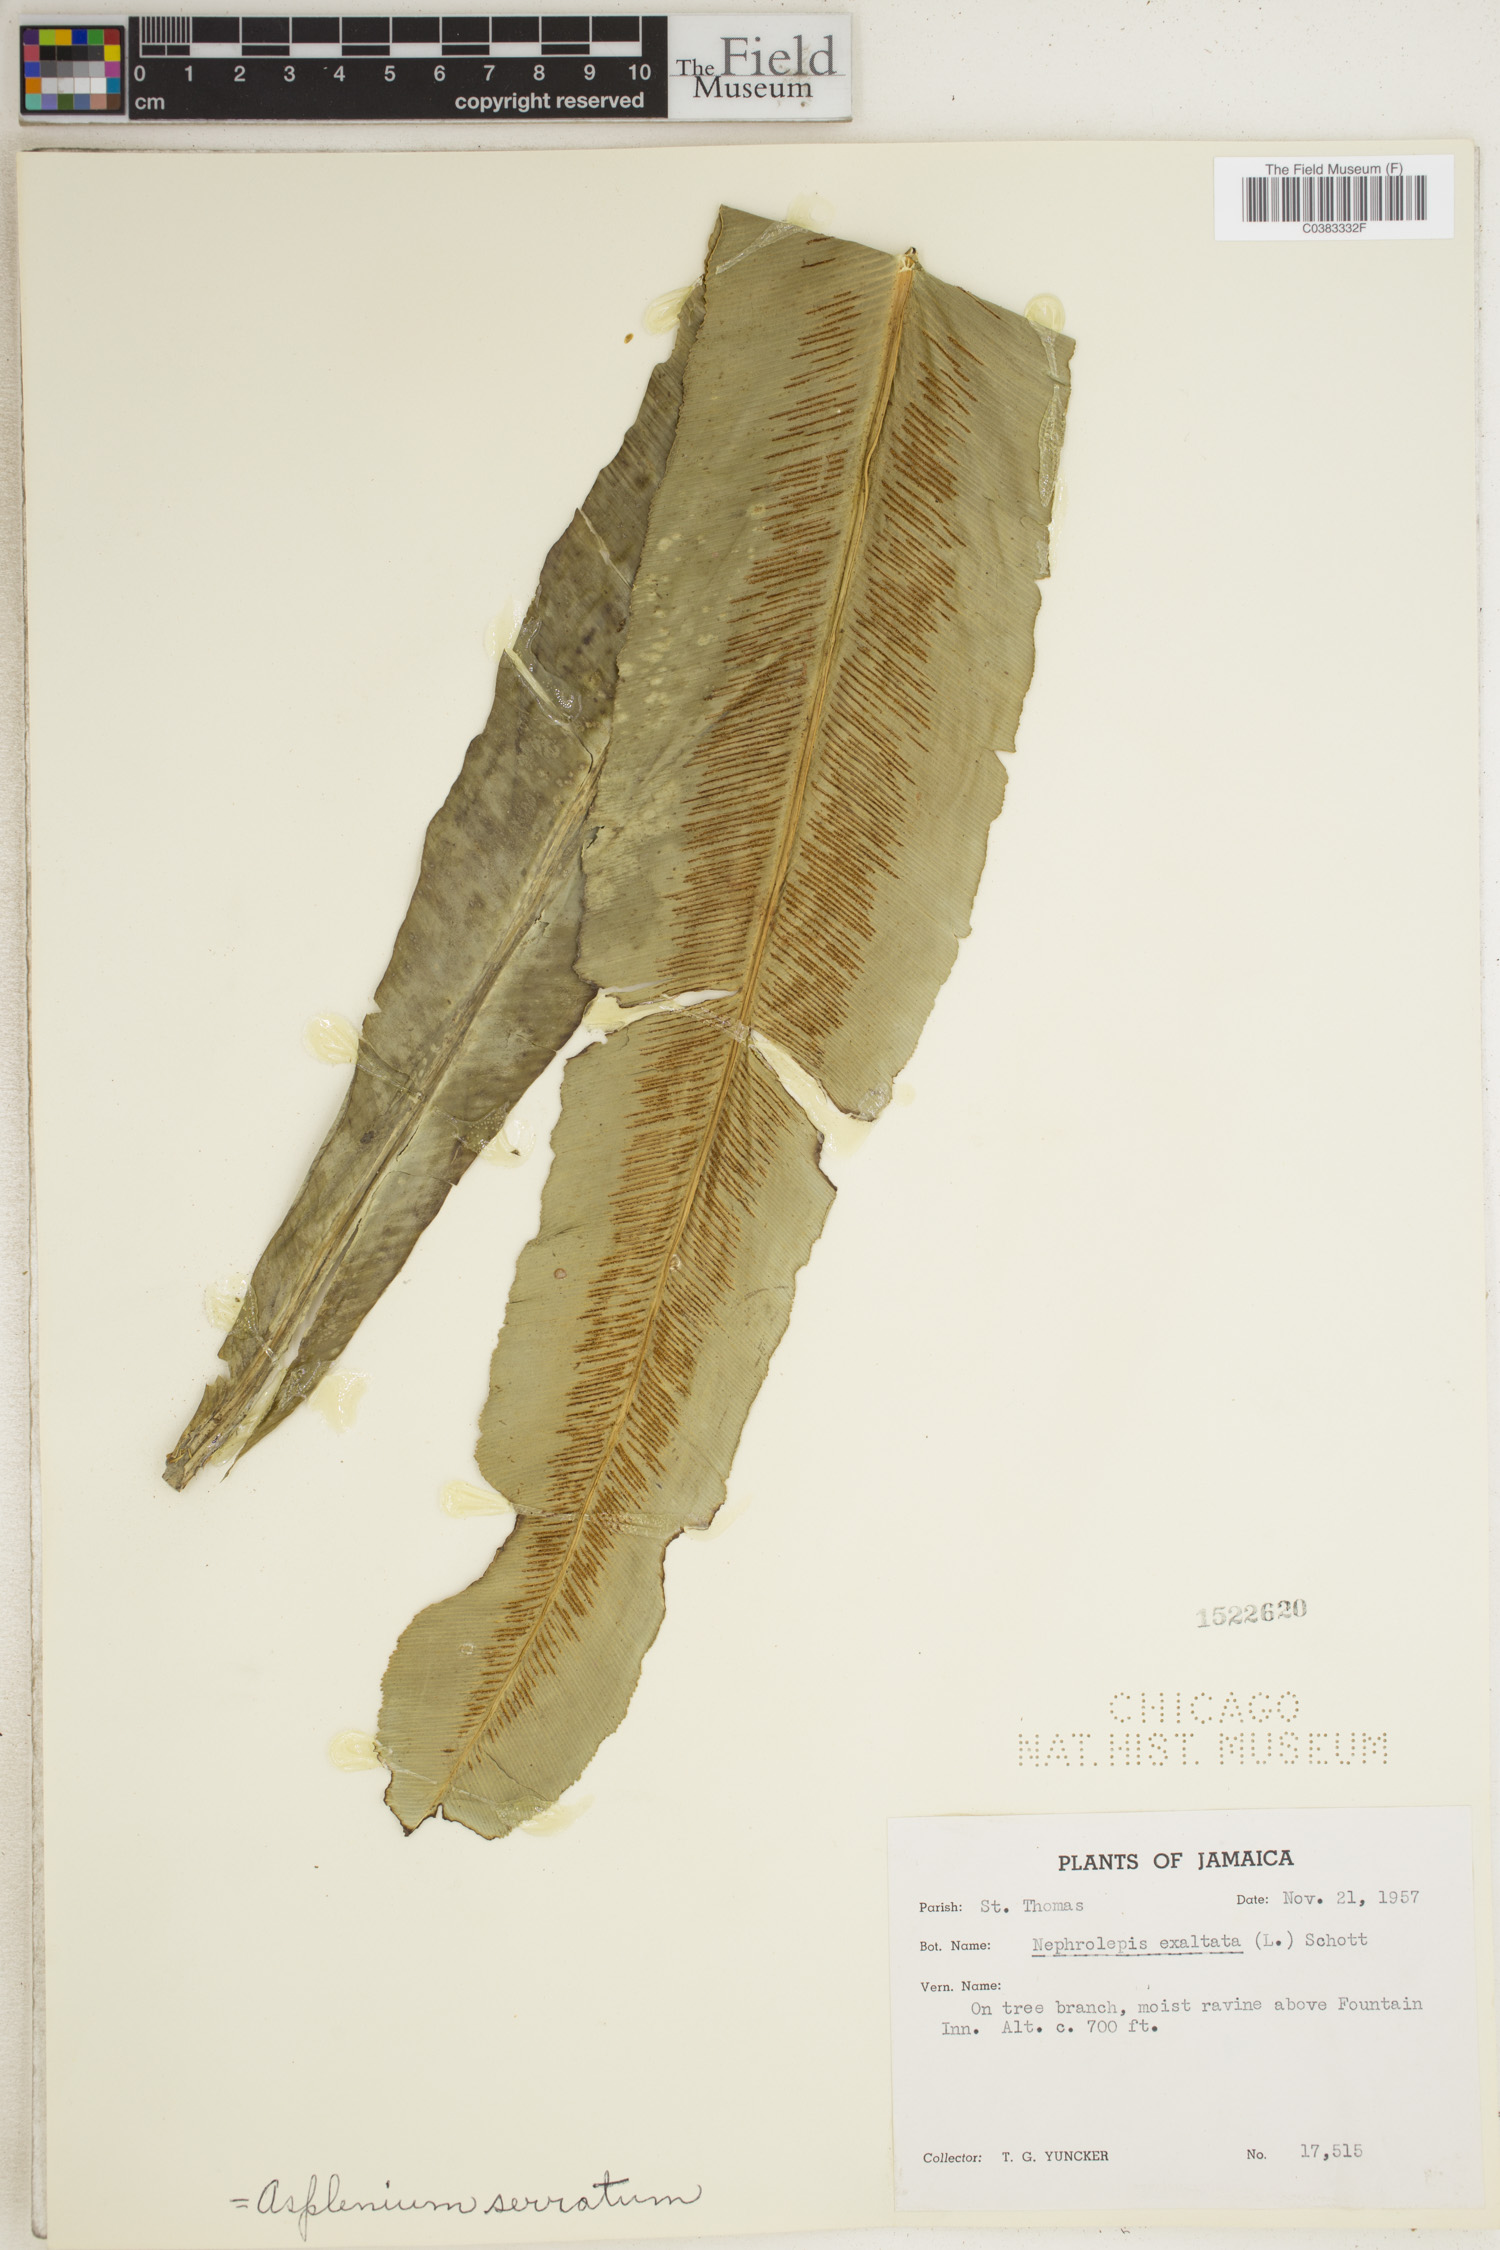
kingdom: Plantae
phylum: Tracheophyta
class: Polypodiopsida
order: Polypodiales
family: Aspleniaceae
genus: Asplenium
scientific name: Asplenium serratum
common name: Wild birdnest fern
